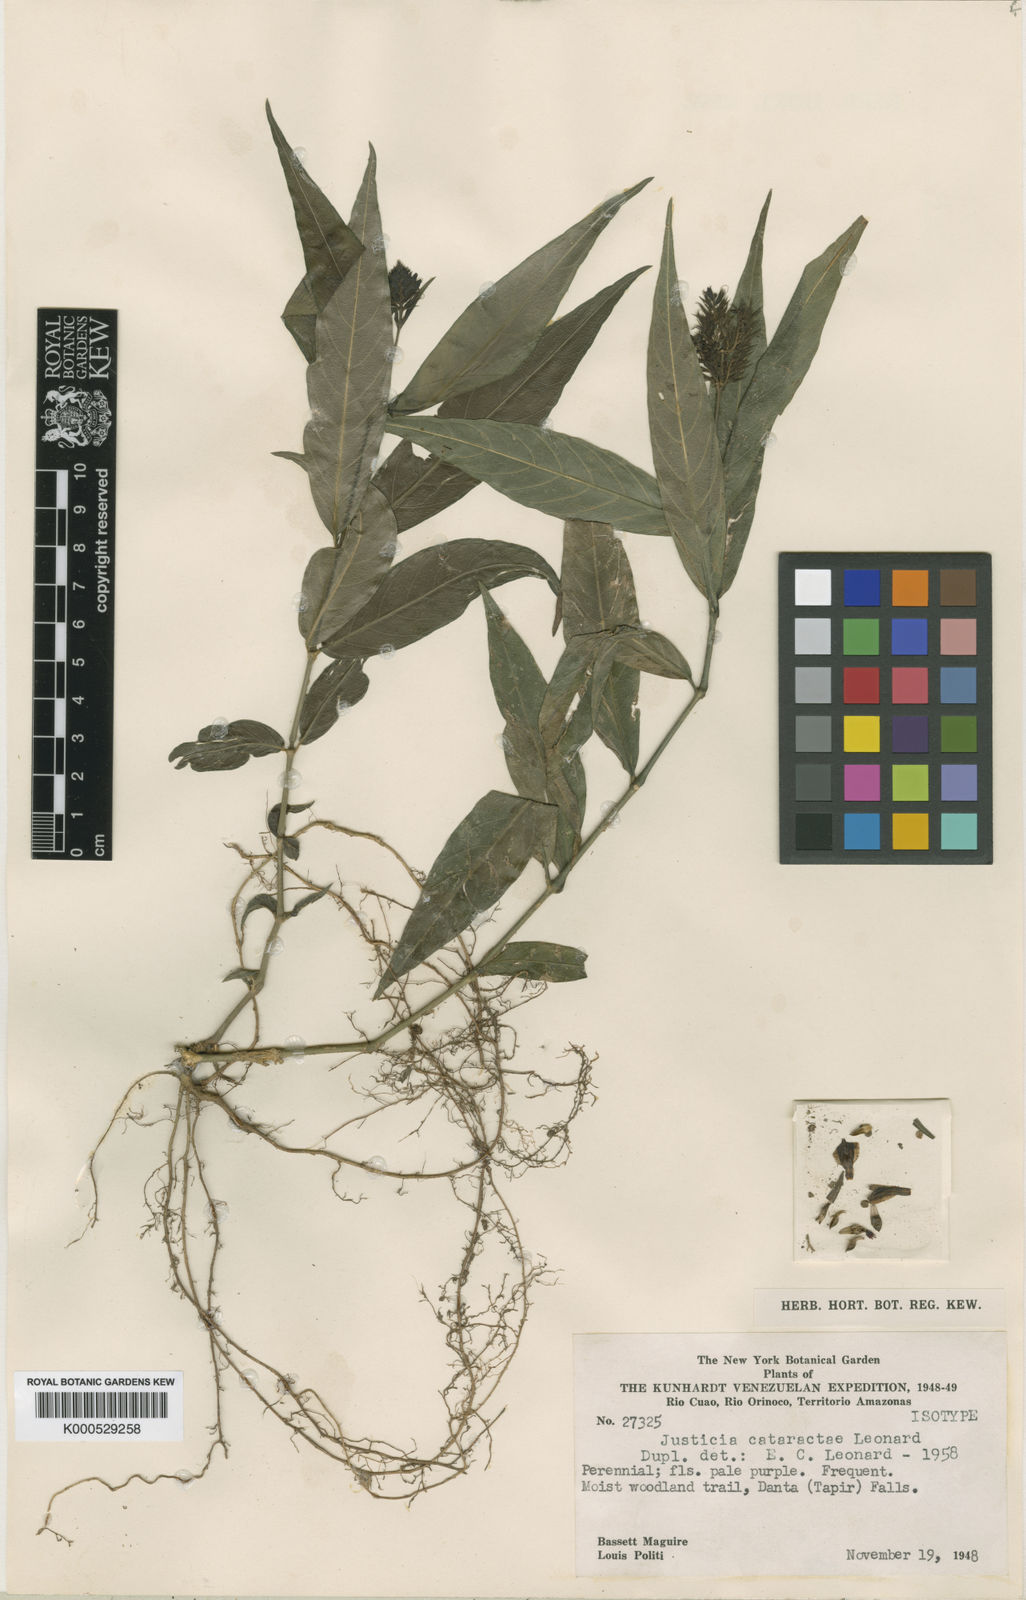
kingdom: Plantae
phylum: Tracheophyta
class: Magnoliopsida
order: Lamiales
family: Acanthaceae
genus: Justicia
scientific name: Justicia cataractae
